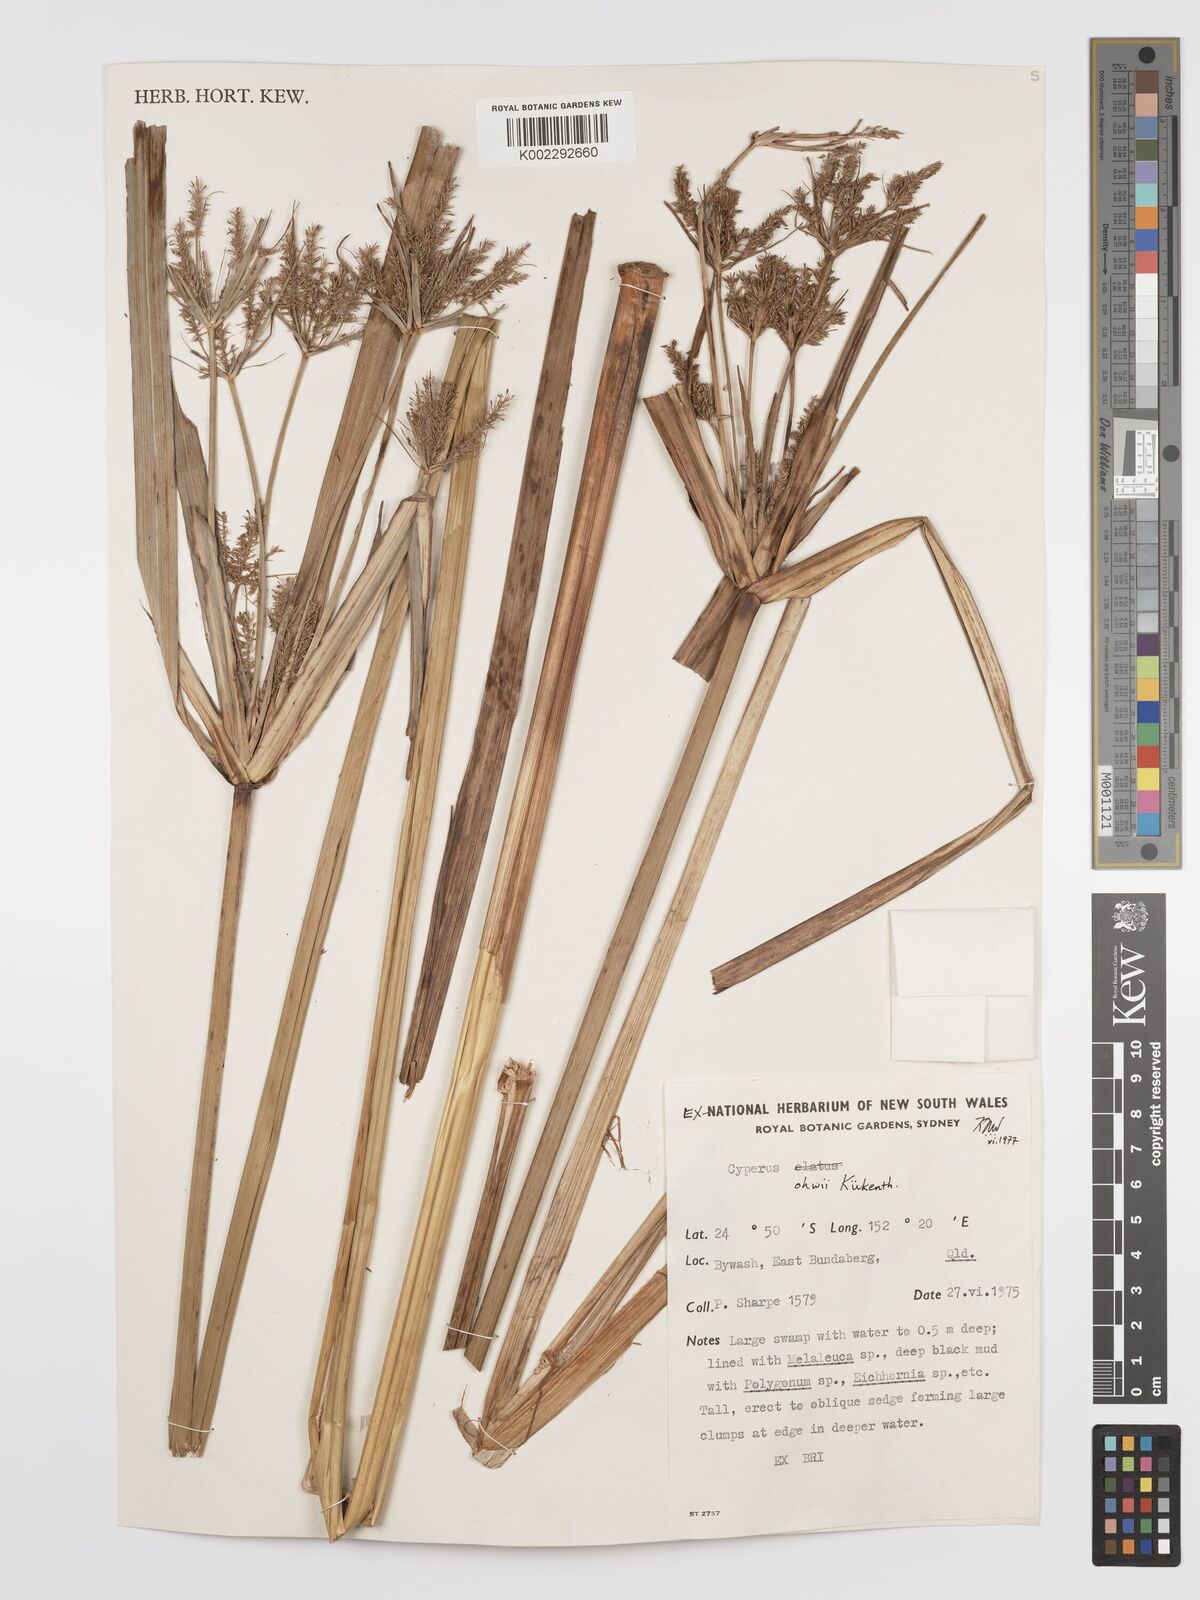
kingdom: Plantae
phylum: Tracheophyta
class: Liliopsida
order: Poales
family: Cyperaceae
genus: Cyperus
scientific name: Cyperus ohwii
